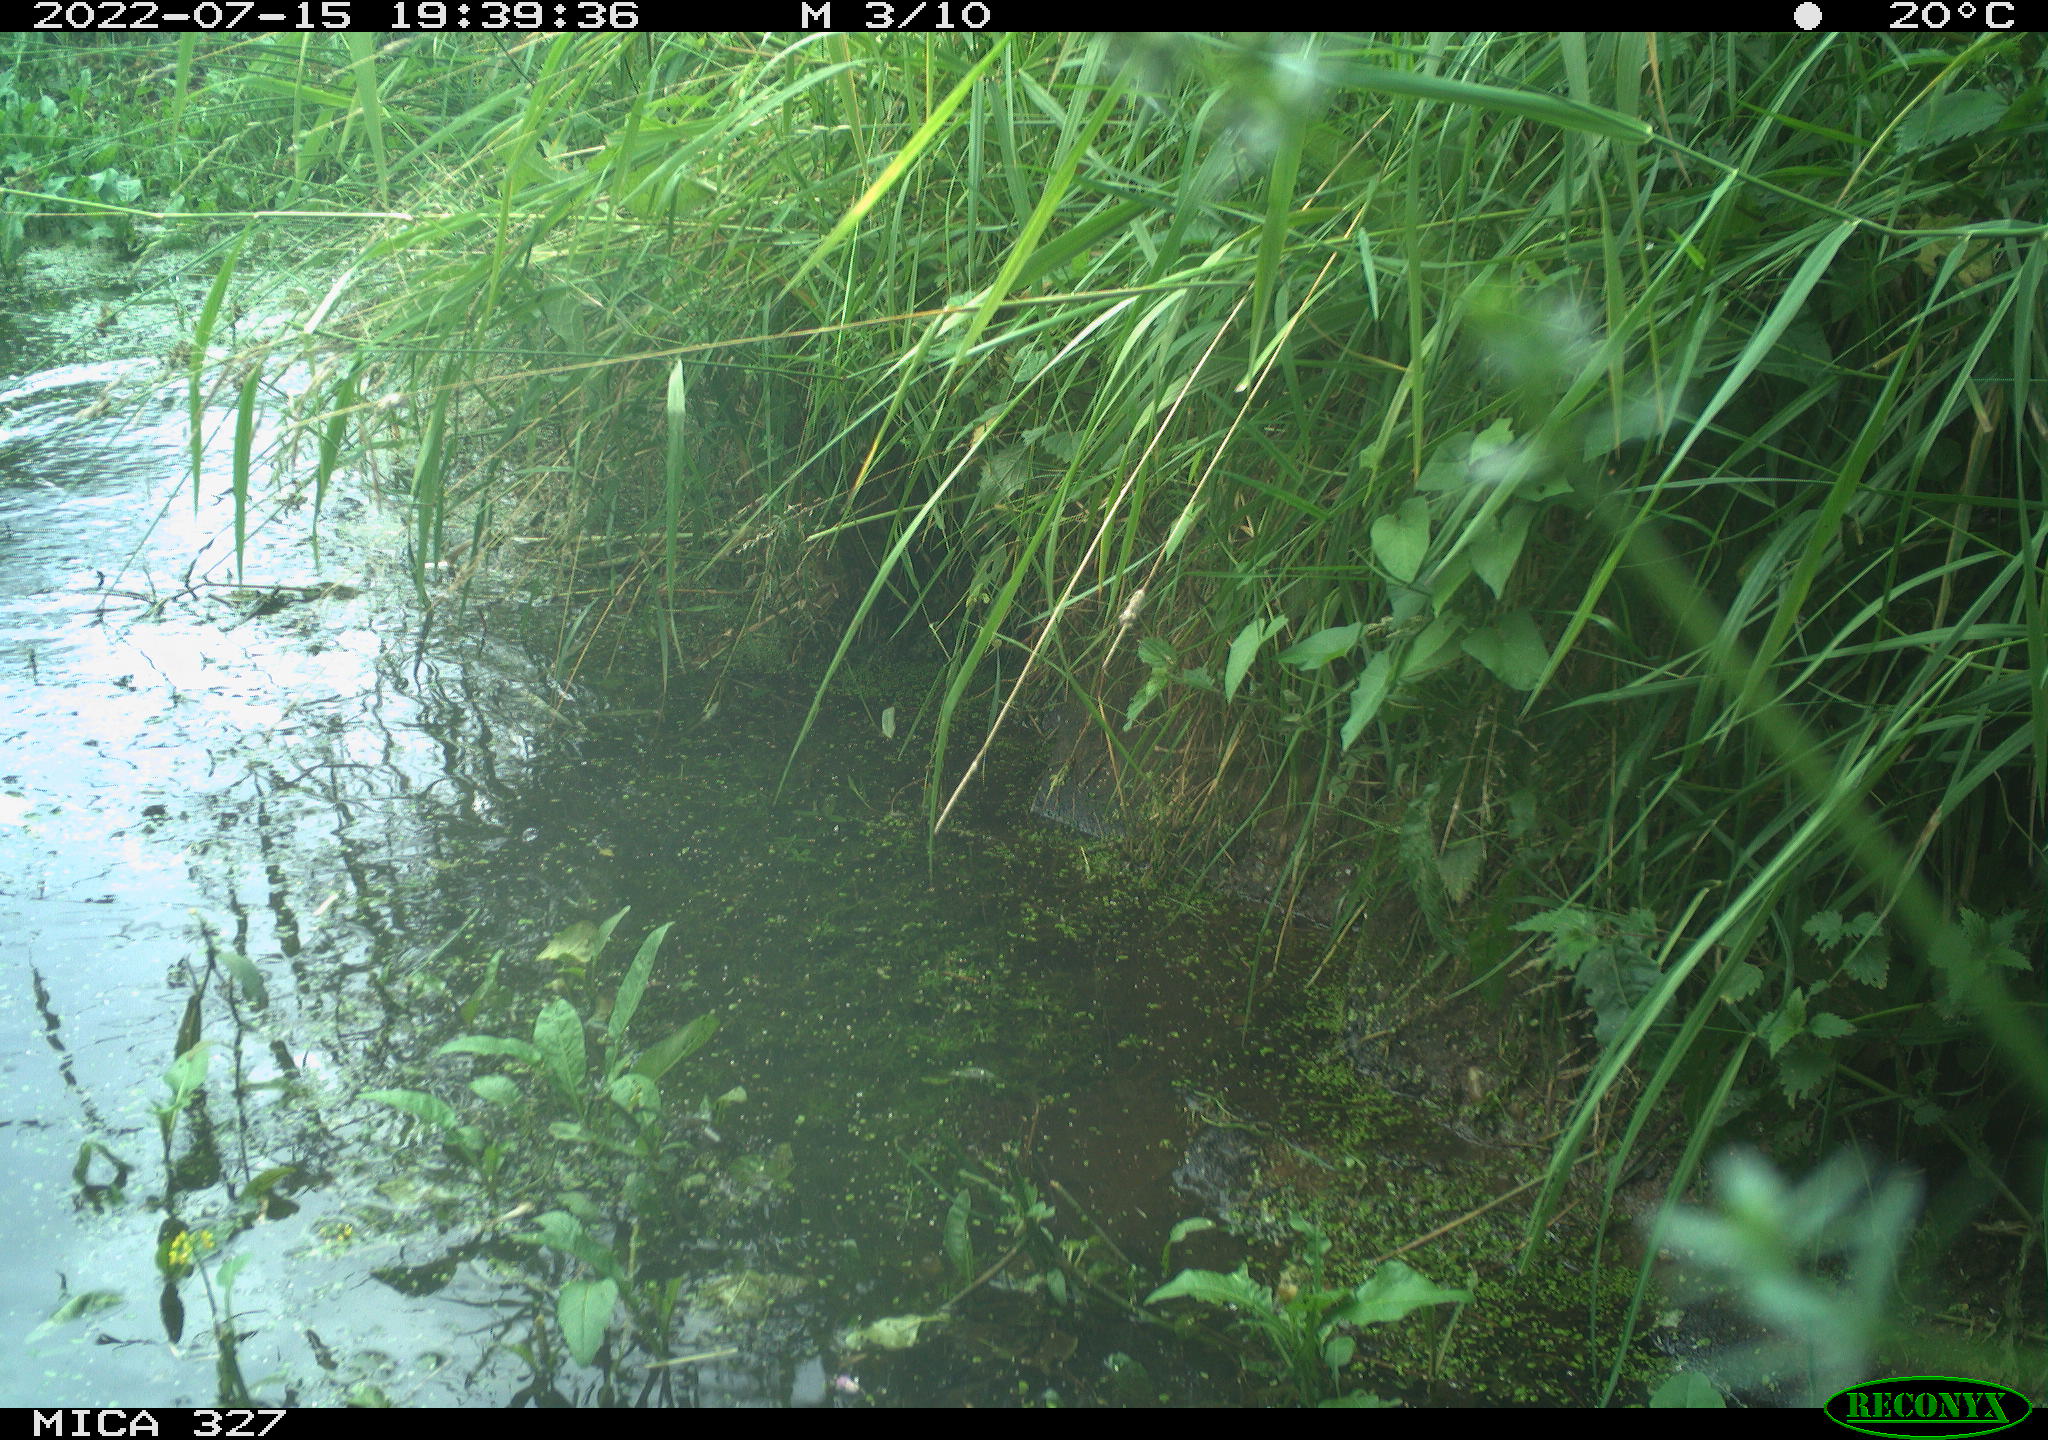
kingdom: Animalia
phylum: Chordata
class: Aves
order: Anseriformes
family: Anatidae
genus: Anas
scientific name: Anas
